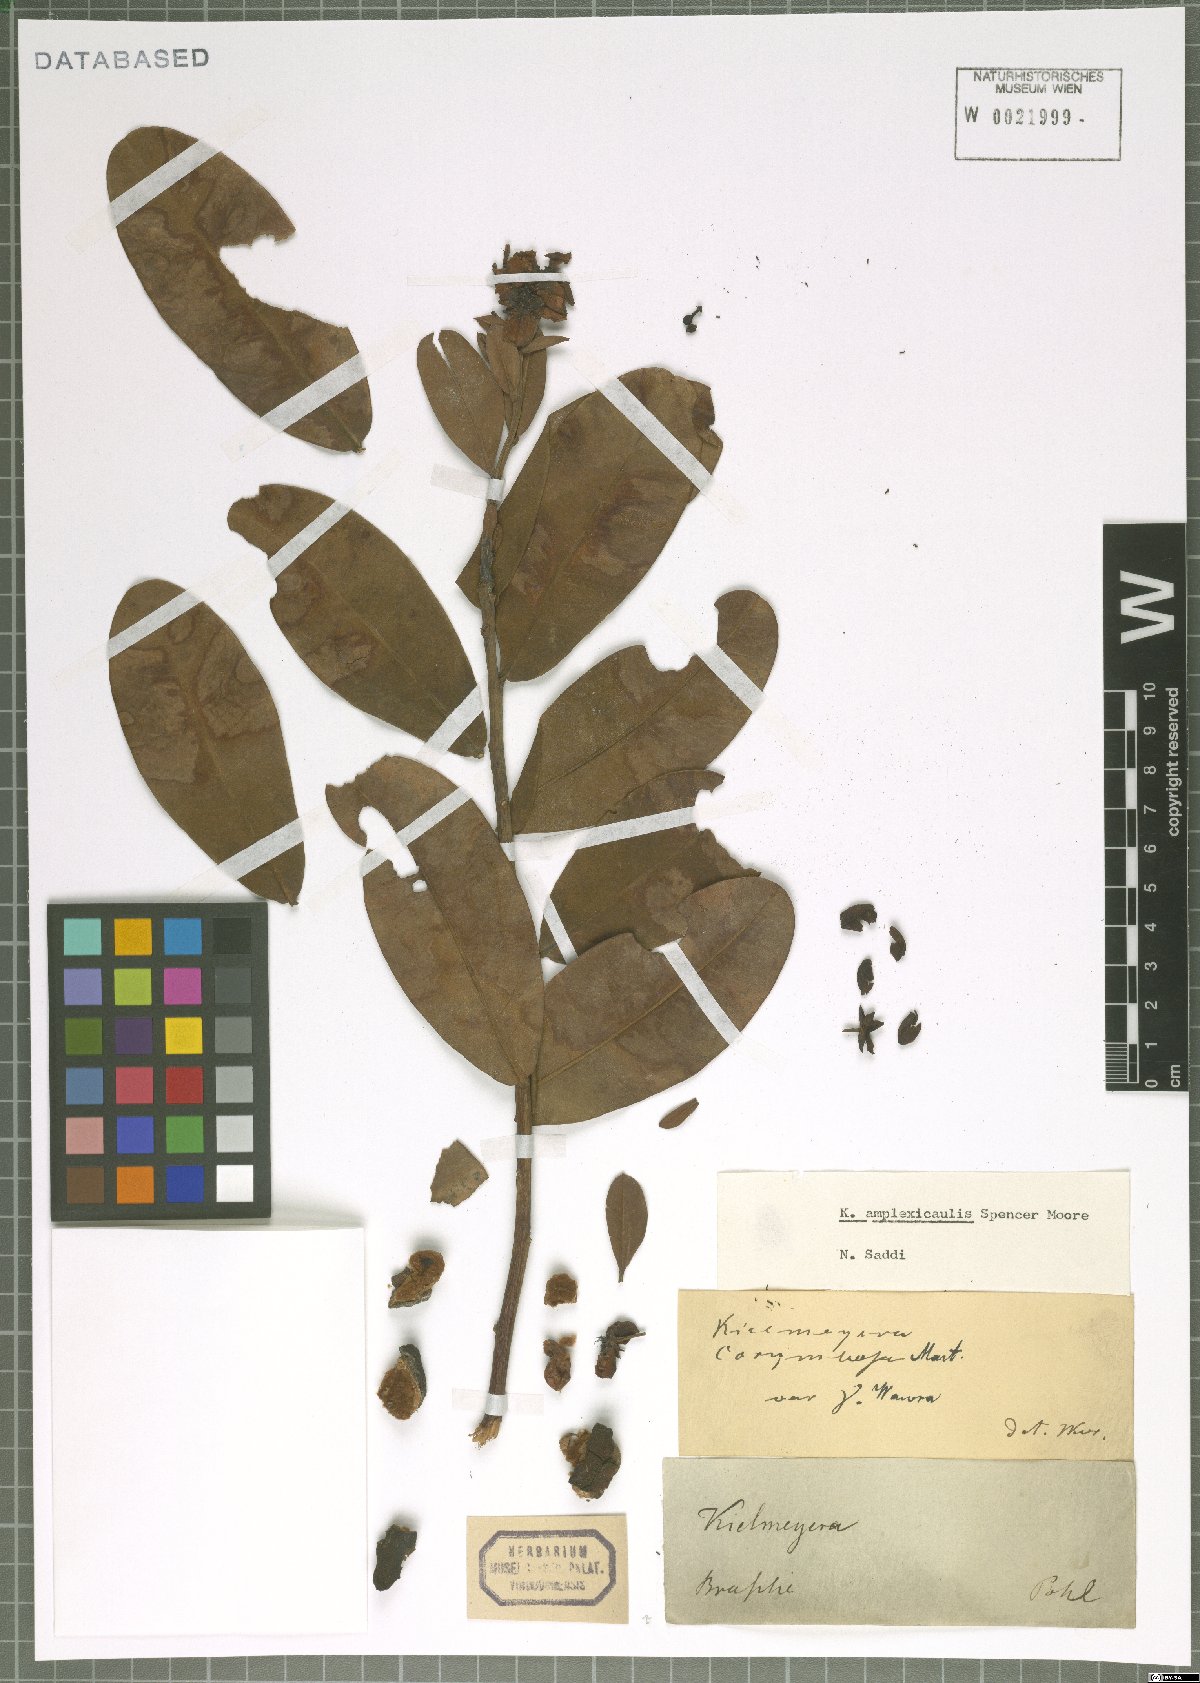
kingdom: Plantae
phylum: Tracheophyta
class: Magnoliopsida
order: Malpighiales
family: Calophyllaceae
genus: Kielmeyera
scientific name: Kielmeyera coriacea
